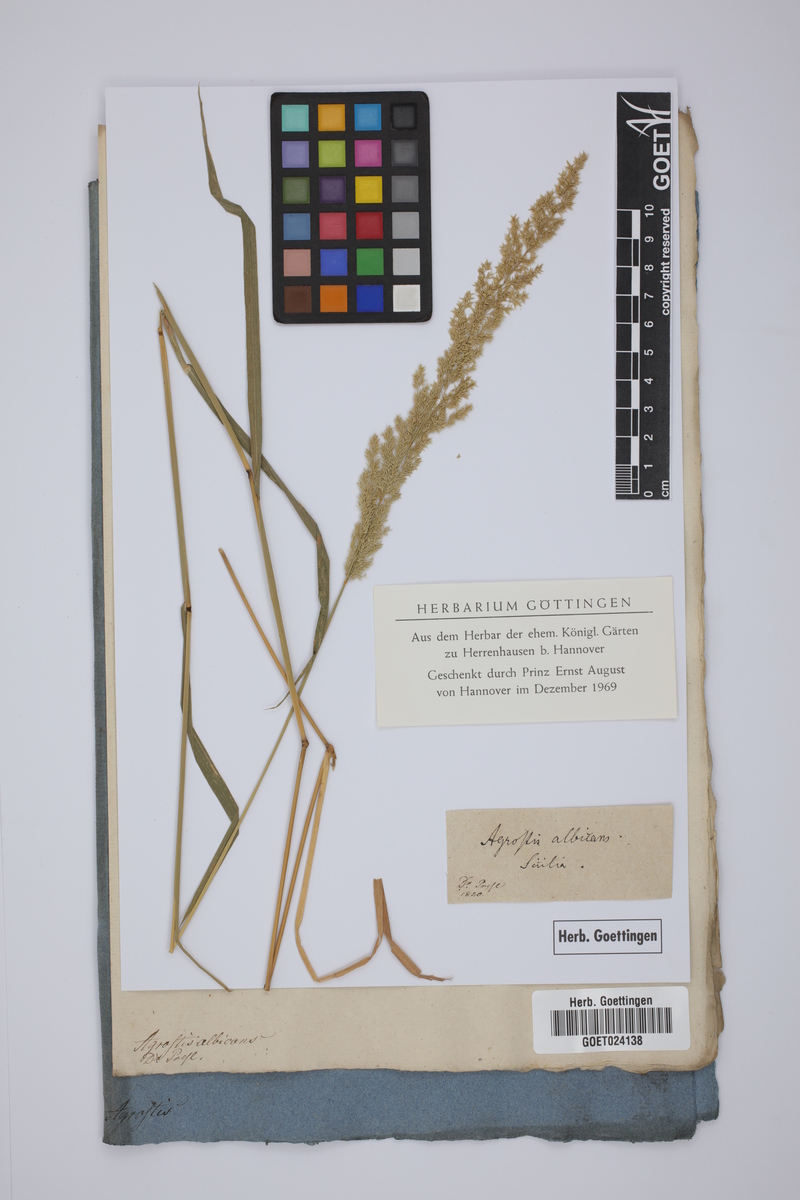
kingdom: Plantae
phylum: Tracheophyta
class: Liliopsida
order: Poales
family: Poaceae
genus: Agrostis
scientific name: Agrostis albicans
